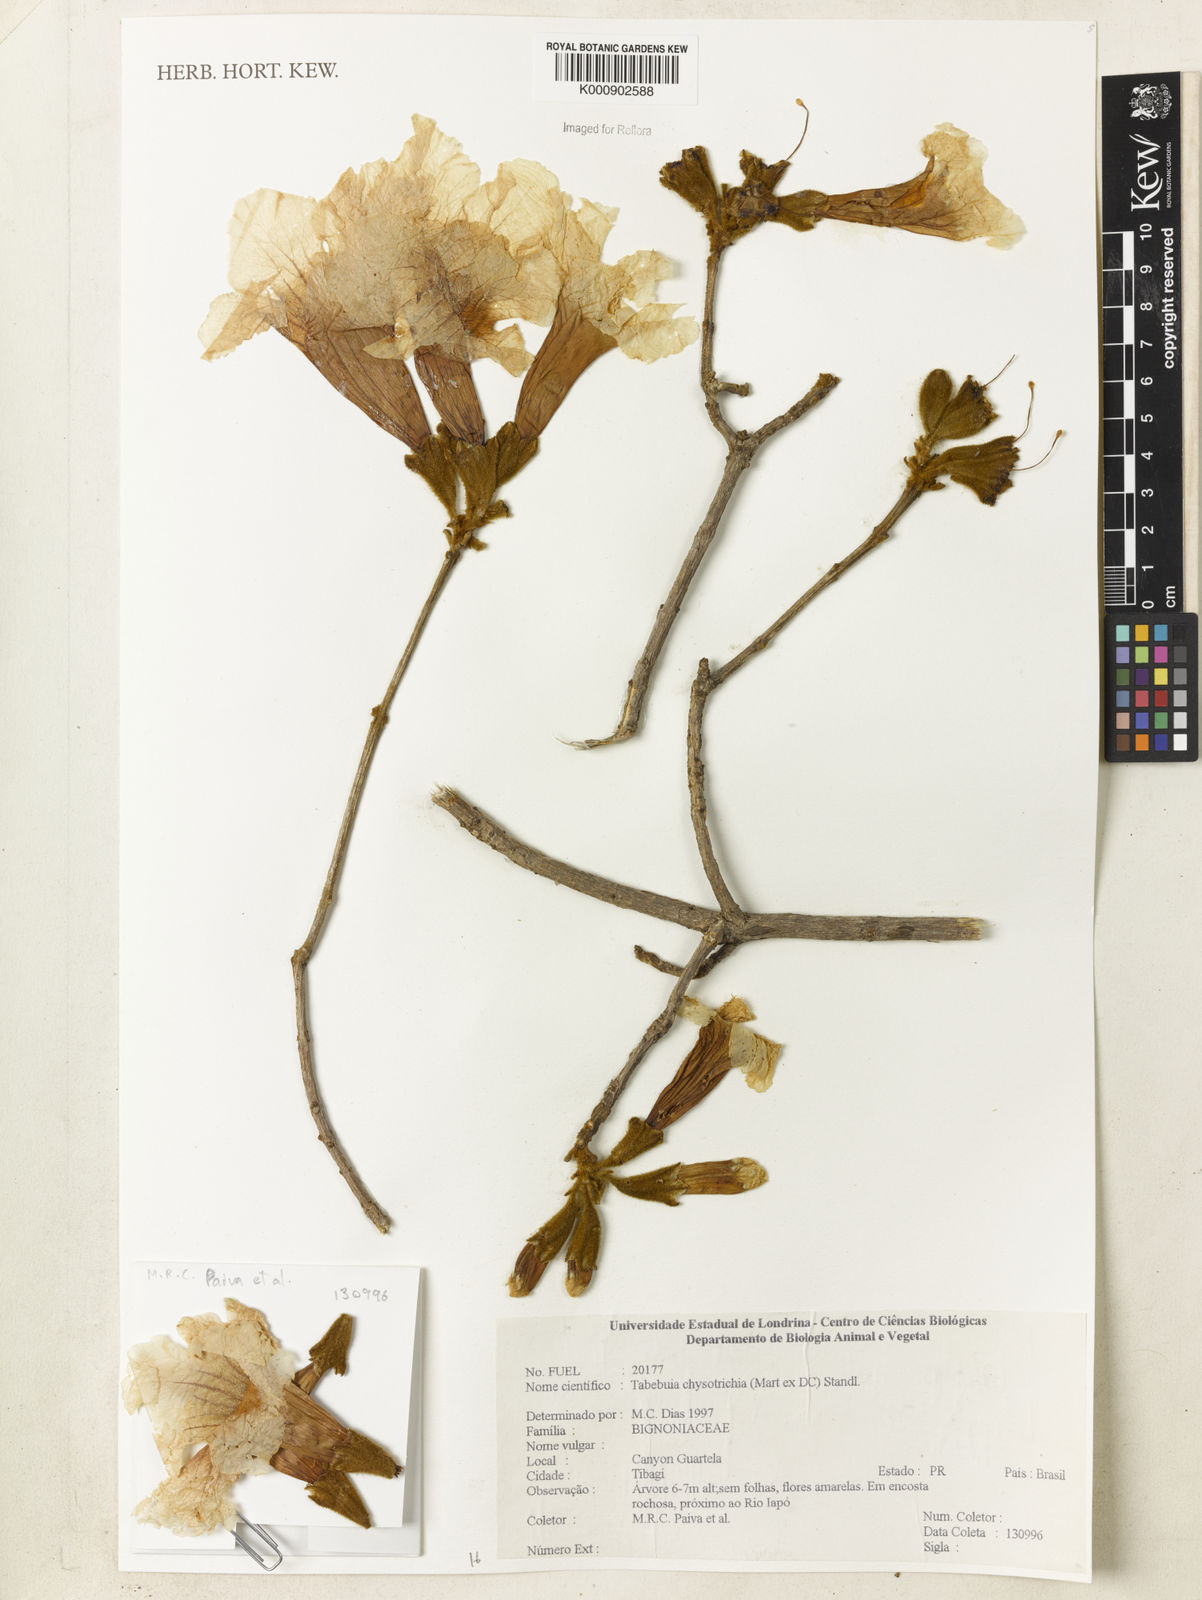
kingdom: Plantae
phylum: Tracheophyta
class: Magnoliopsida
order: Lamiales
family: Bignoniaceae
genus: Handroanthus
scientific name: Handroanthus chrysotrichus
